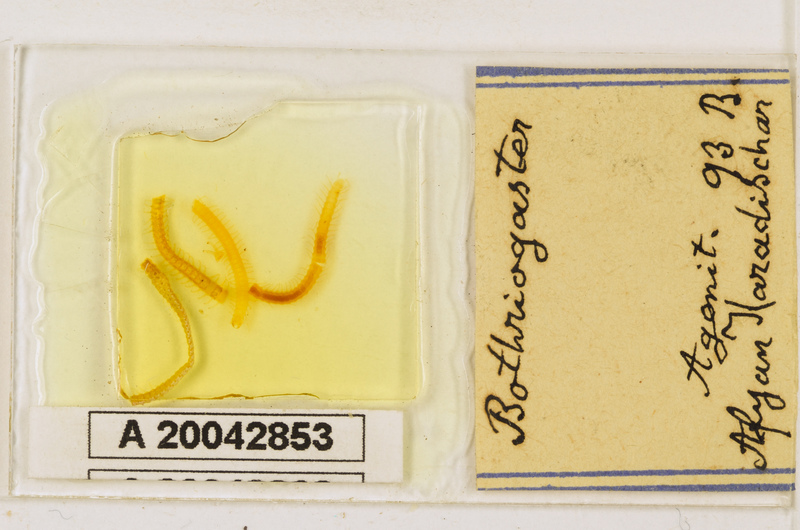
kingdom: Animalia
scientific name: Animalia
